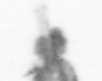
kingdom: Animalia
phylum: Arthropoda
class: Copepoda
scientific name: Copepoda
